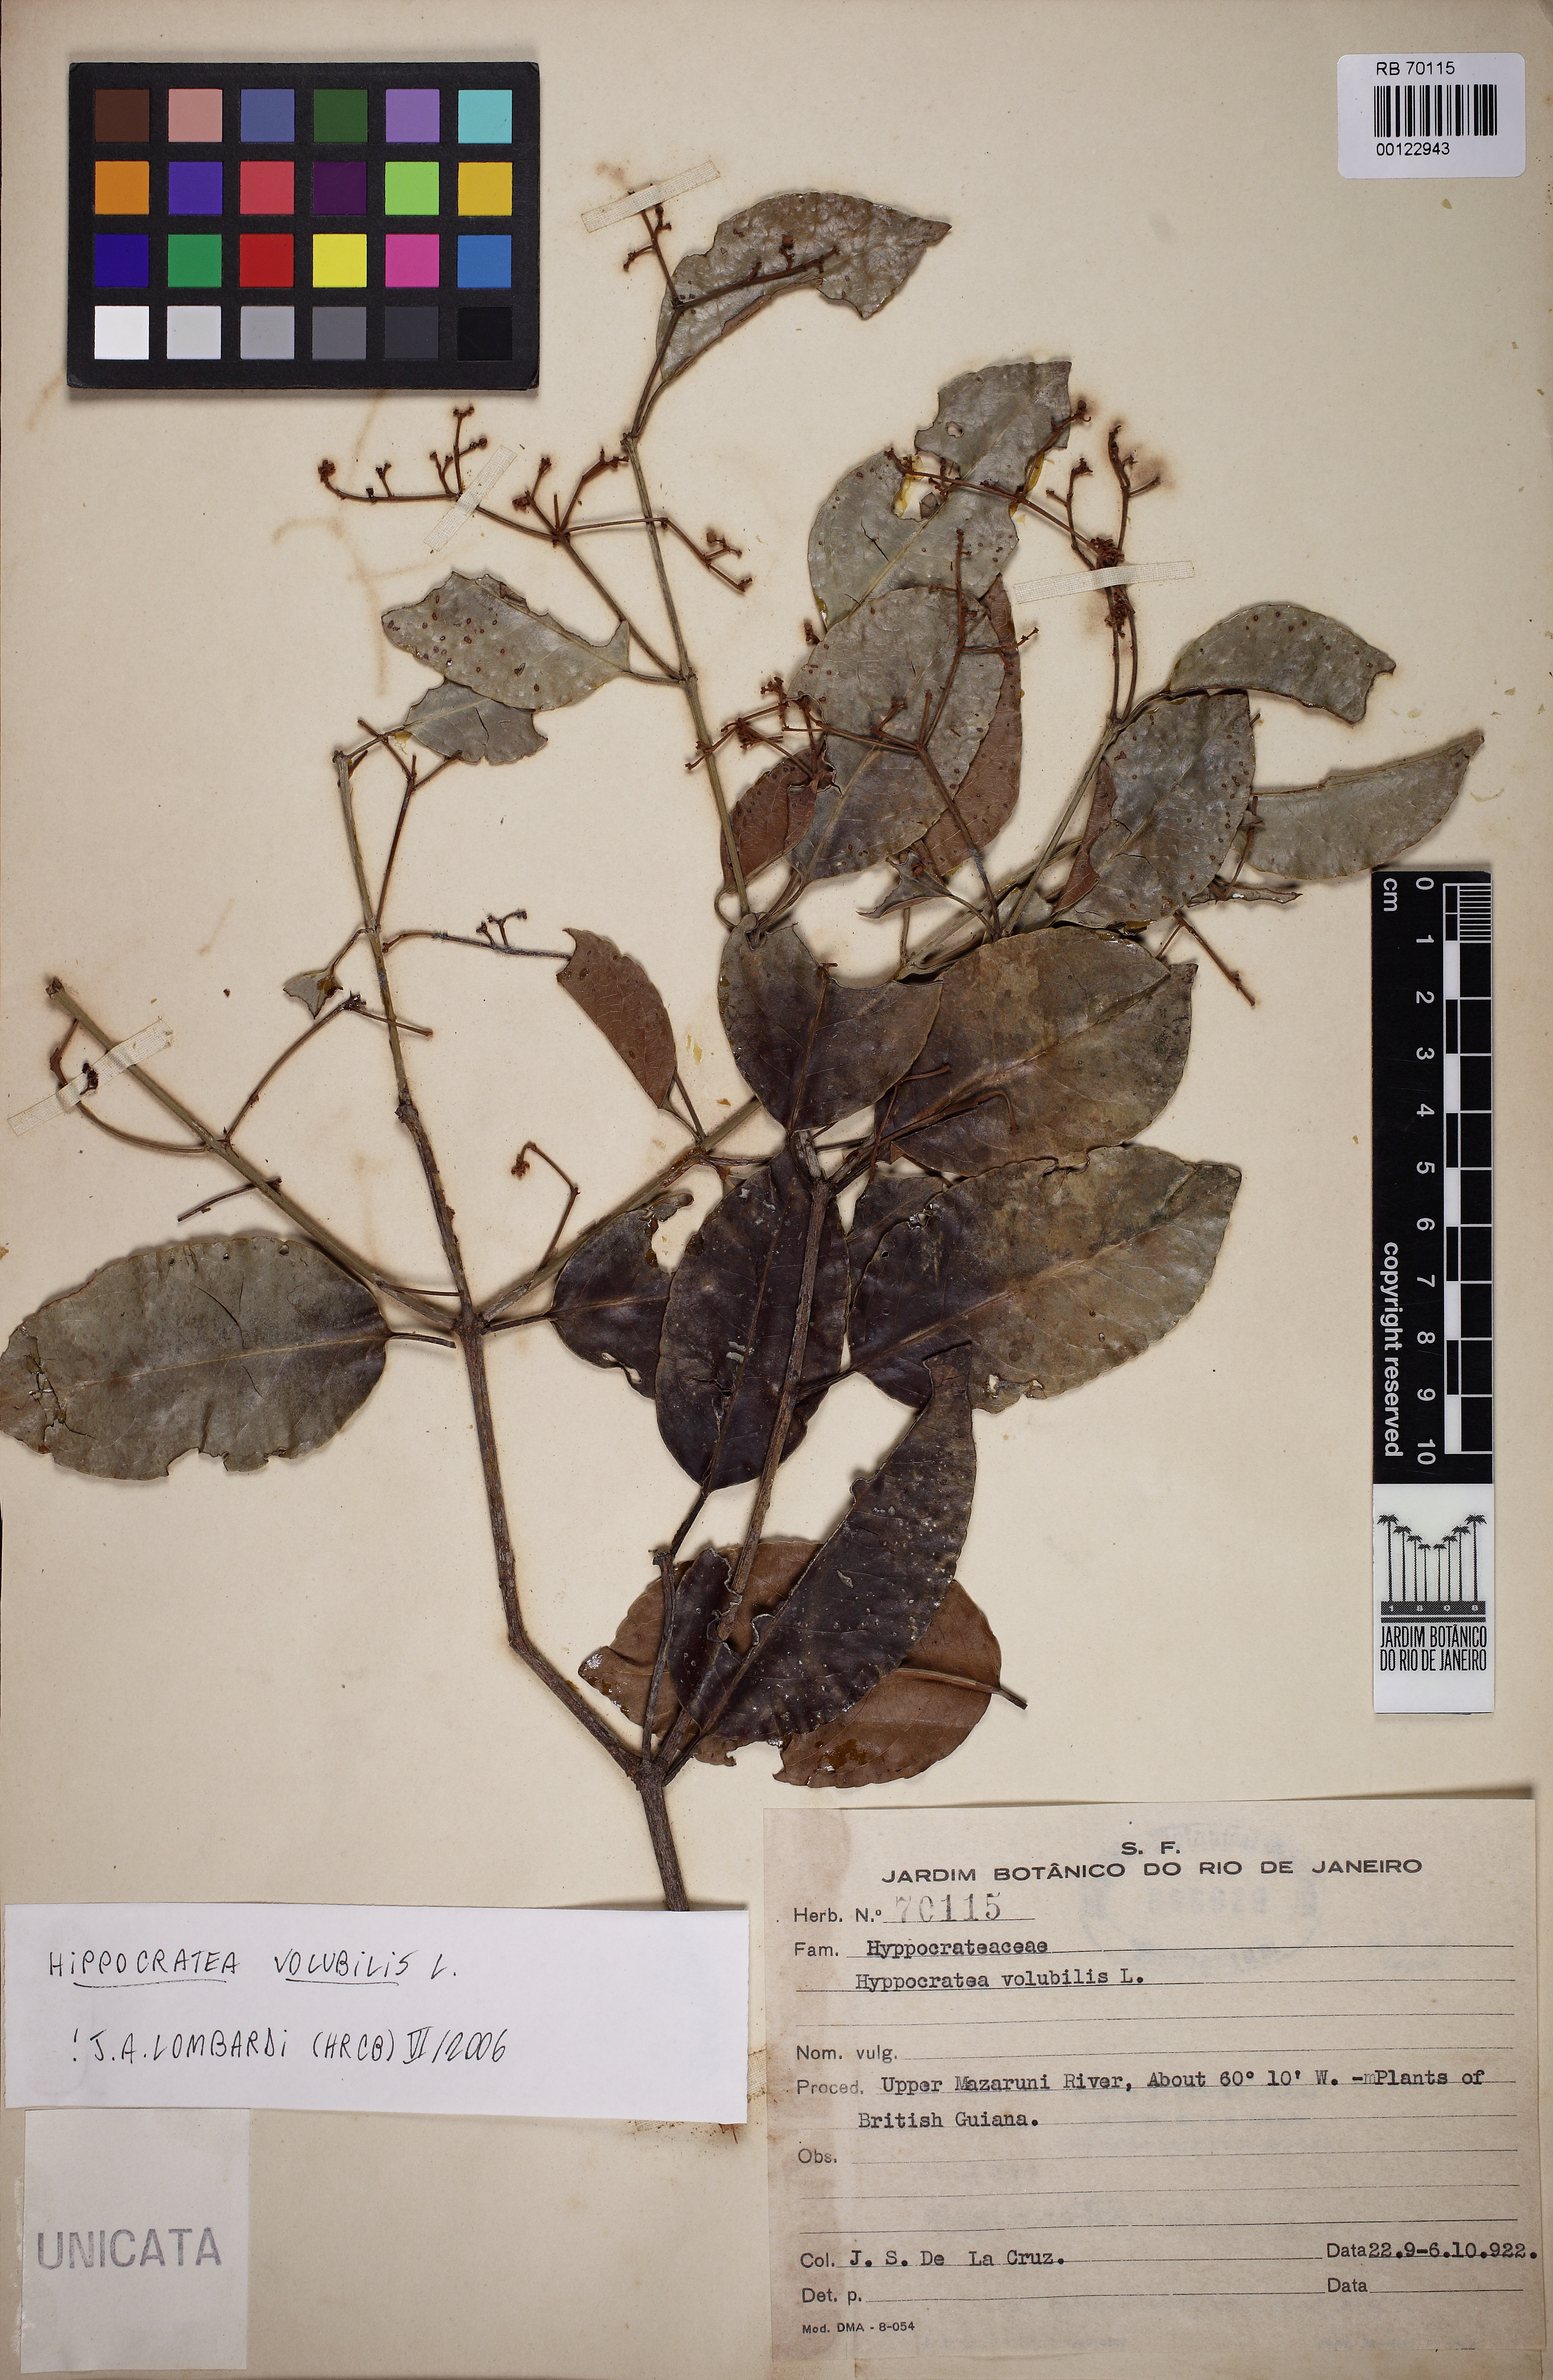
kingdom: Plantae
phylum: Tracheophyta
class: Magnoliopsida
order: Celastrales
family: Celastraceae
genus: Hippocratea
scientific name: Hippocratea volubilis
